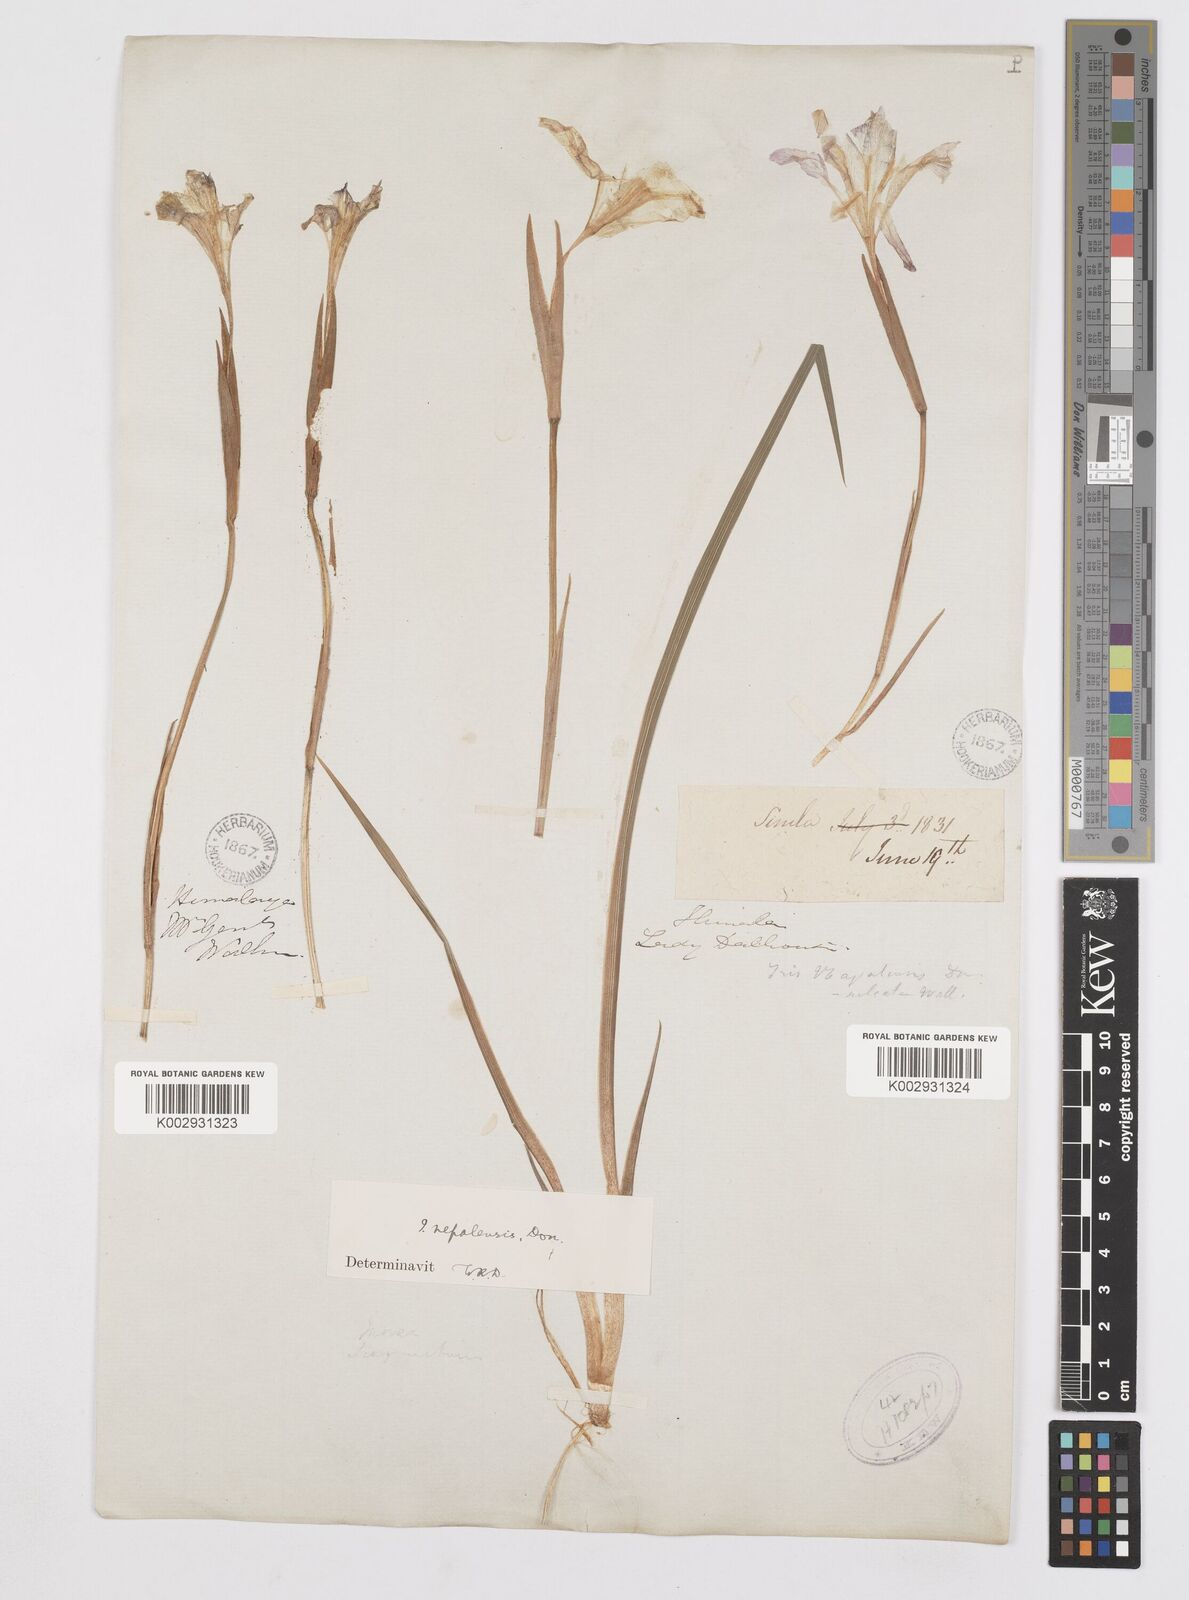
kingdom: Plantae
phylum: Tracheophyta
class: Liliopsida
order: Asparagales
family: Iridaceae
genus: Iris
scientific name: Iris decora
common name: Nepal iris
